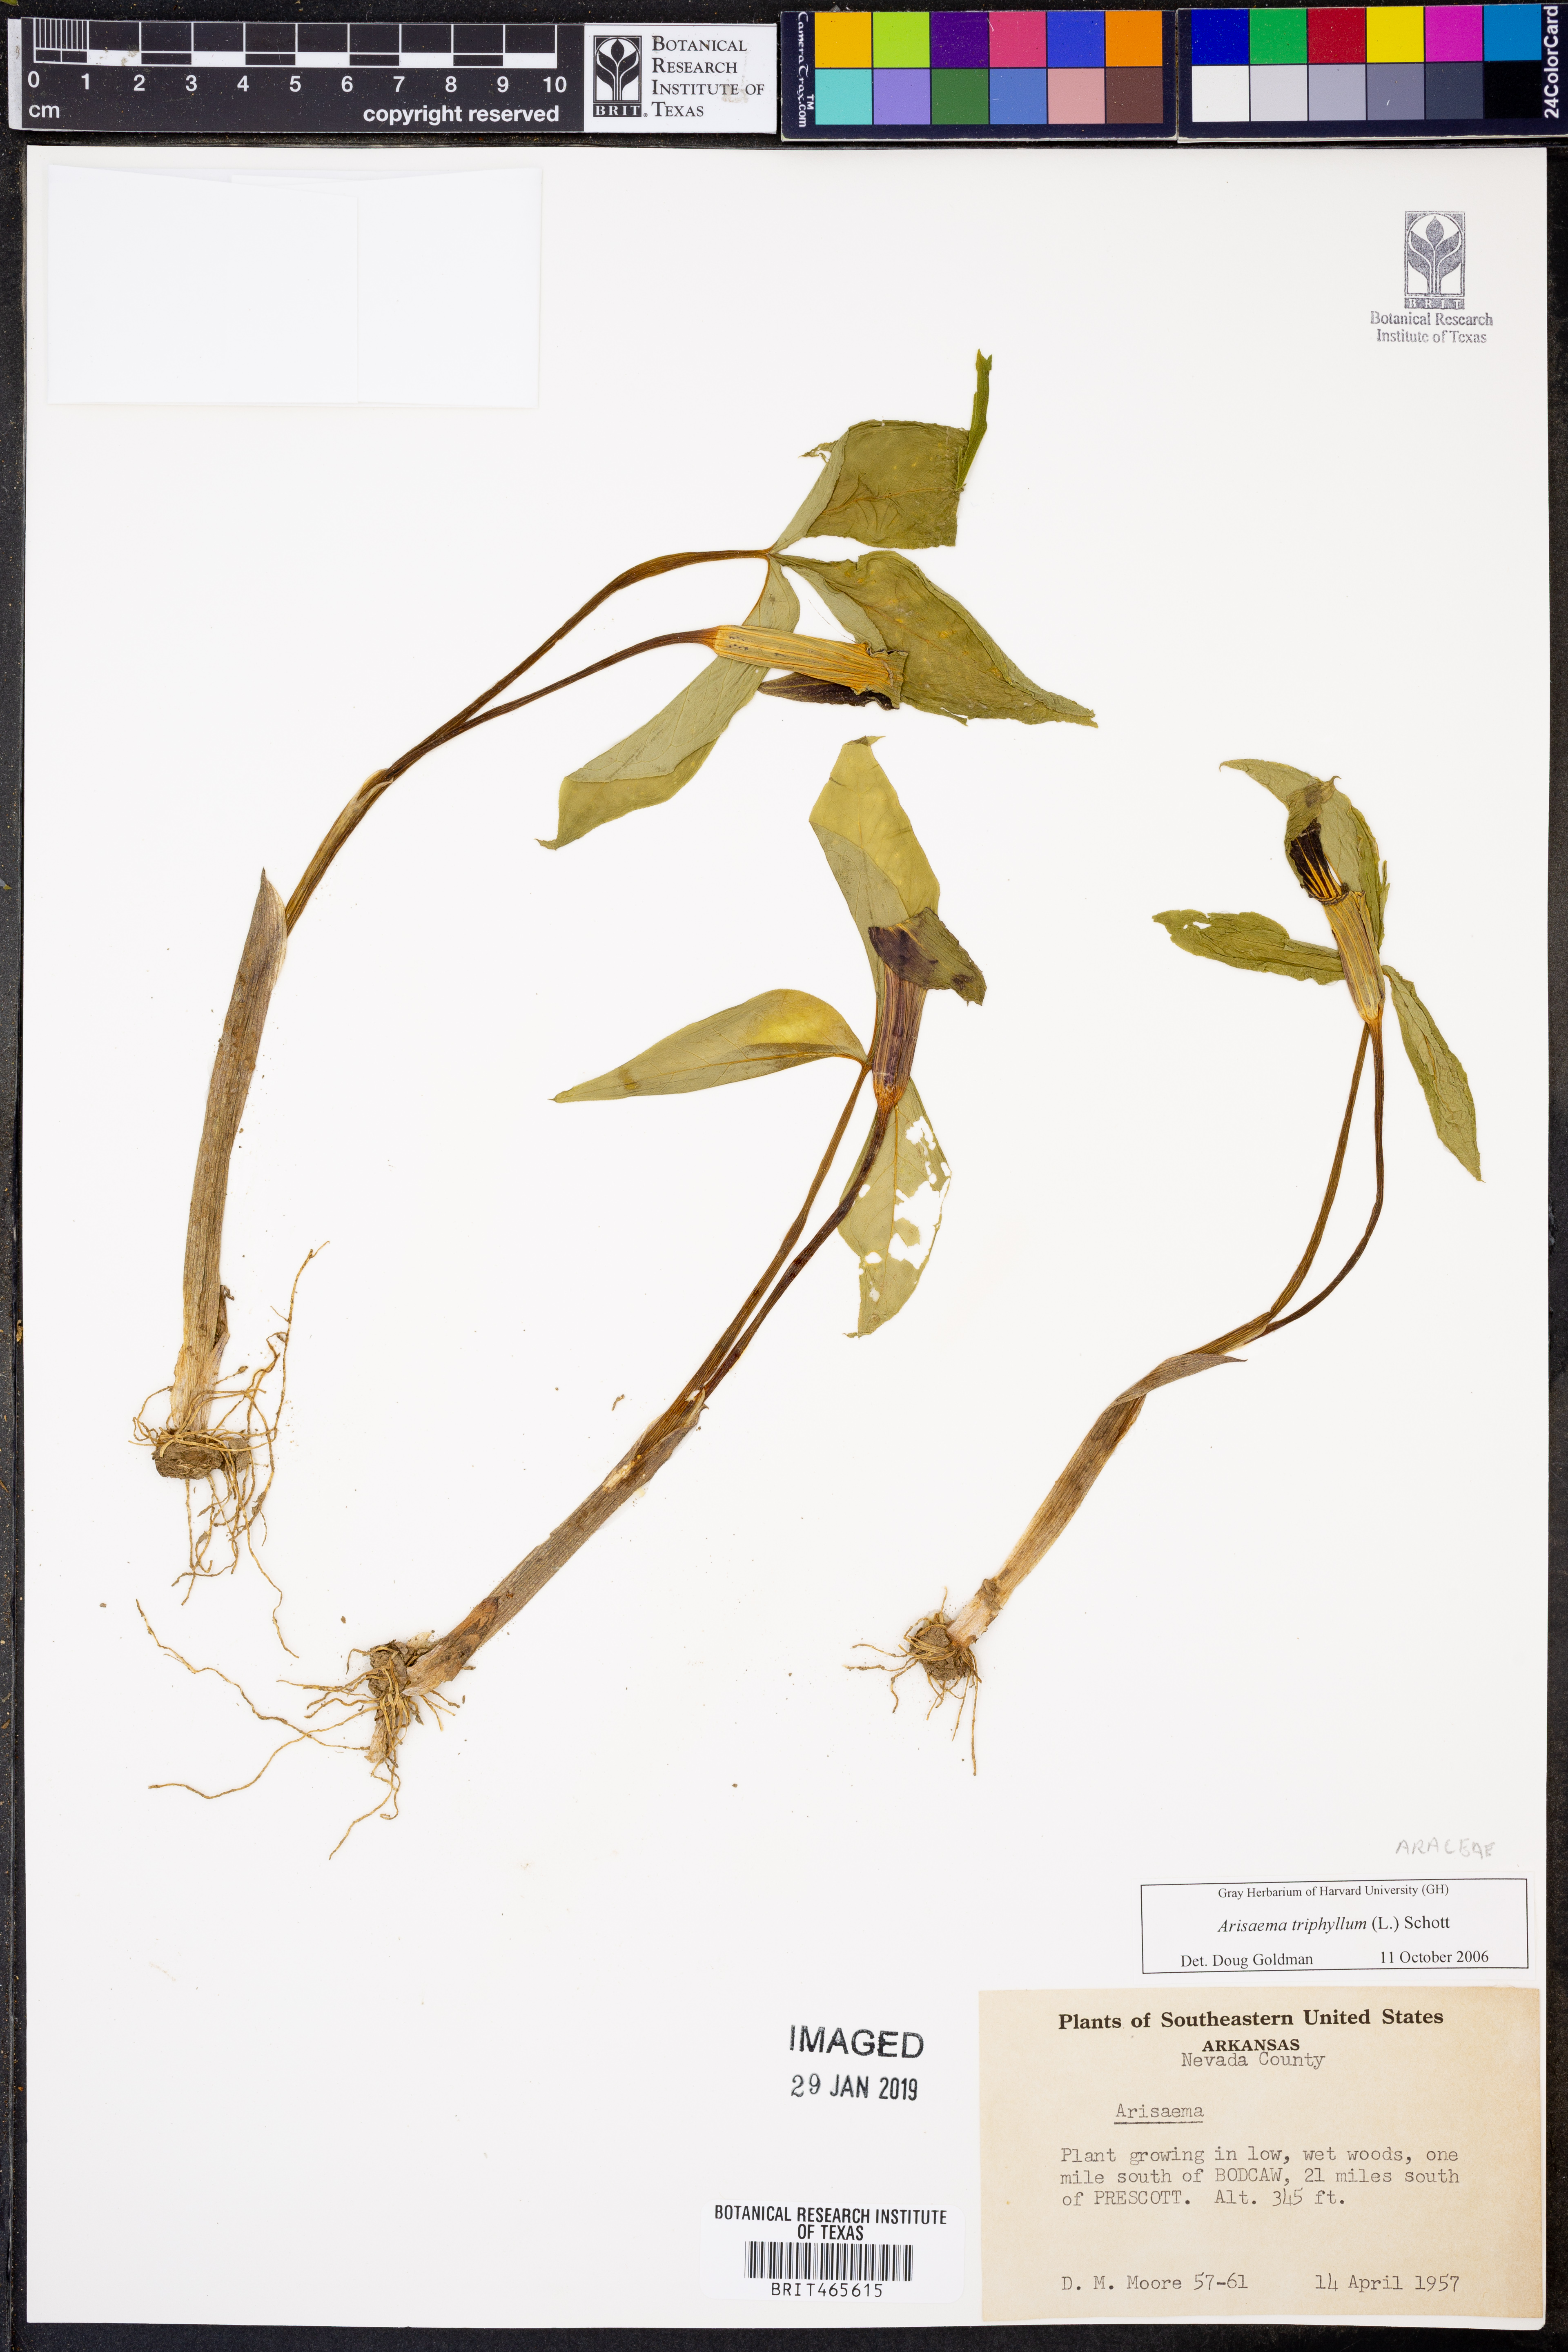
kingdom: Plantae
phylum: Tracheophyta
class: Liliopsida
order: Alismatales
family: Araceae
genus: Arisaema
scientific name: Arisaema triphyllum
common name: Jack-in-the-pulpit
